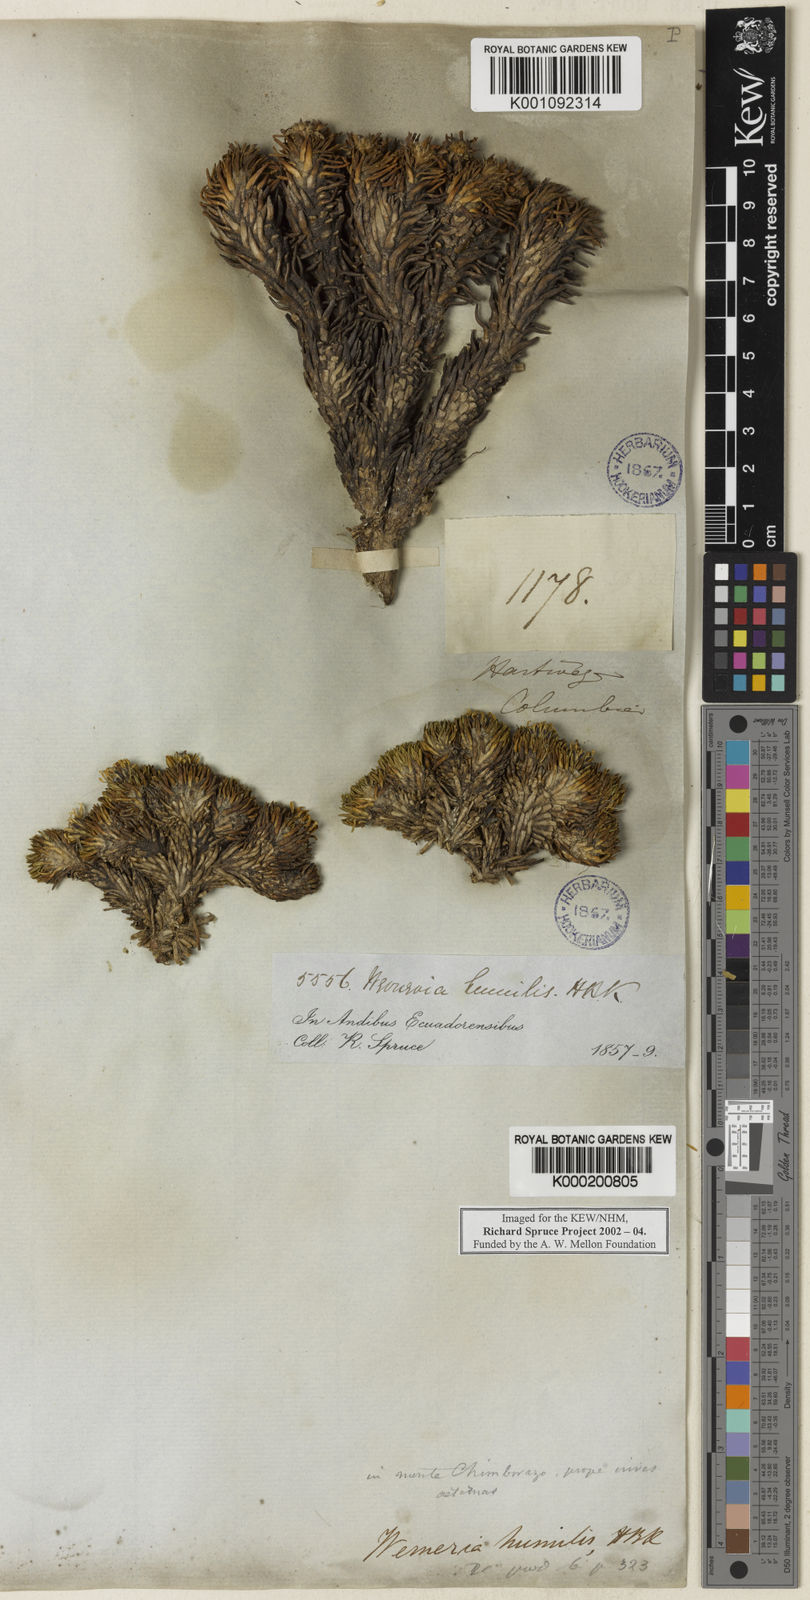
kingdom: Plantae
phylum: Tracheophyta
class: Magnoliopsida
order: Asterales
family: Asteraceae
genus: Werneria
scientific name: Werneria rosea
